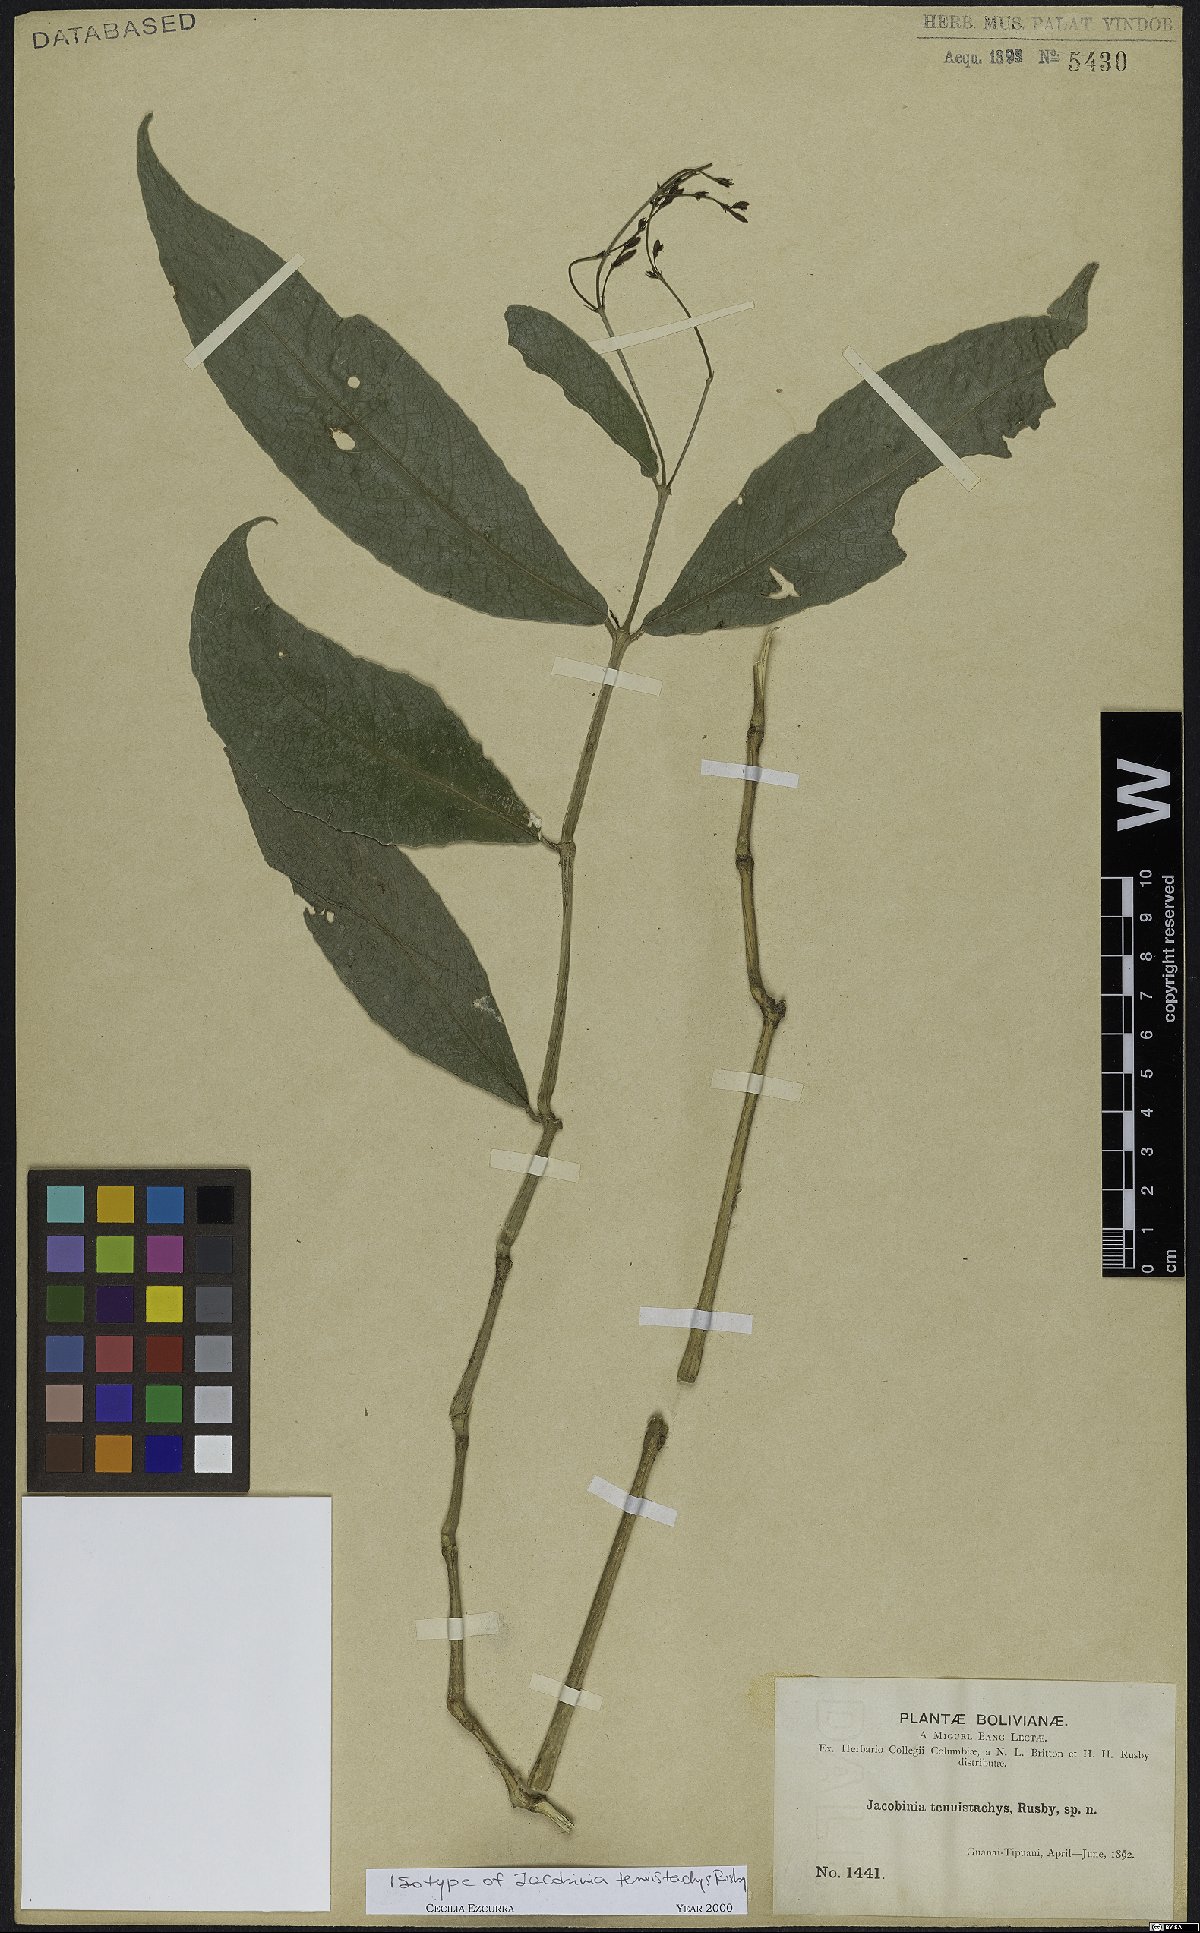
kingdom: Plantae
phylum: Tracheophyta
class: Magnoliopsida
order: Lamiales
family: Acanthaceae
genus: Justicia
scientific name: Justicia tenuistachys
